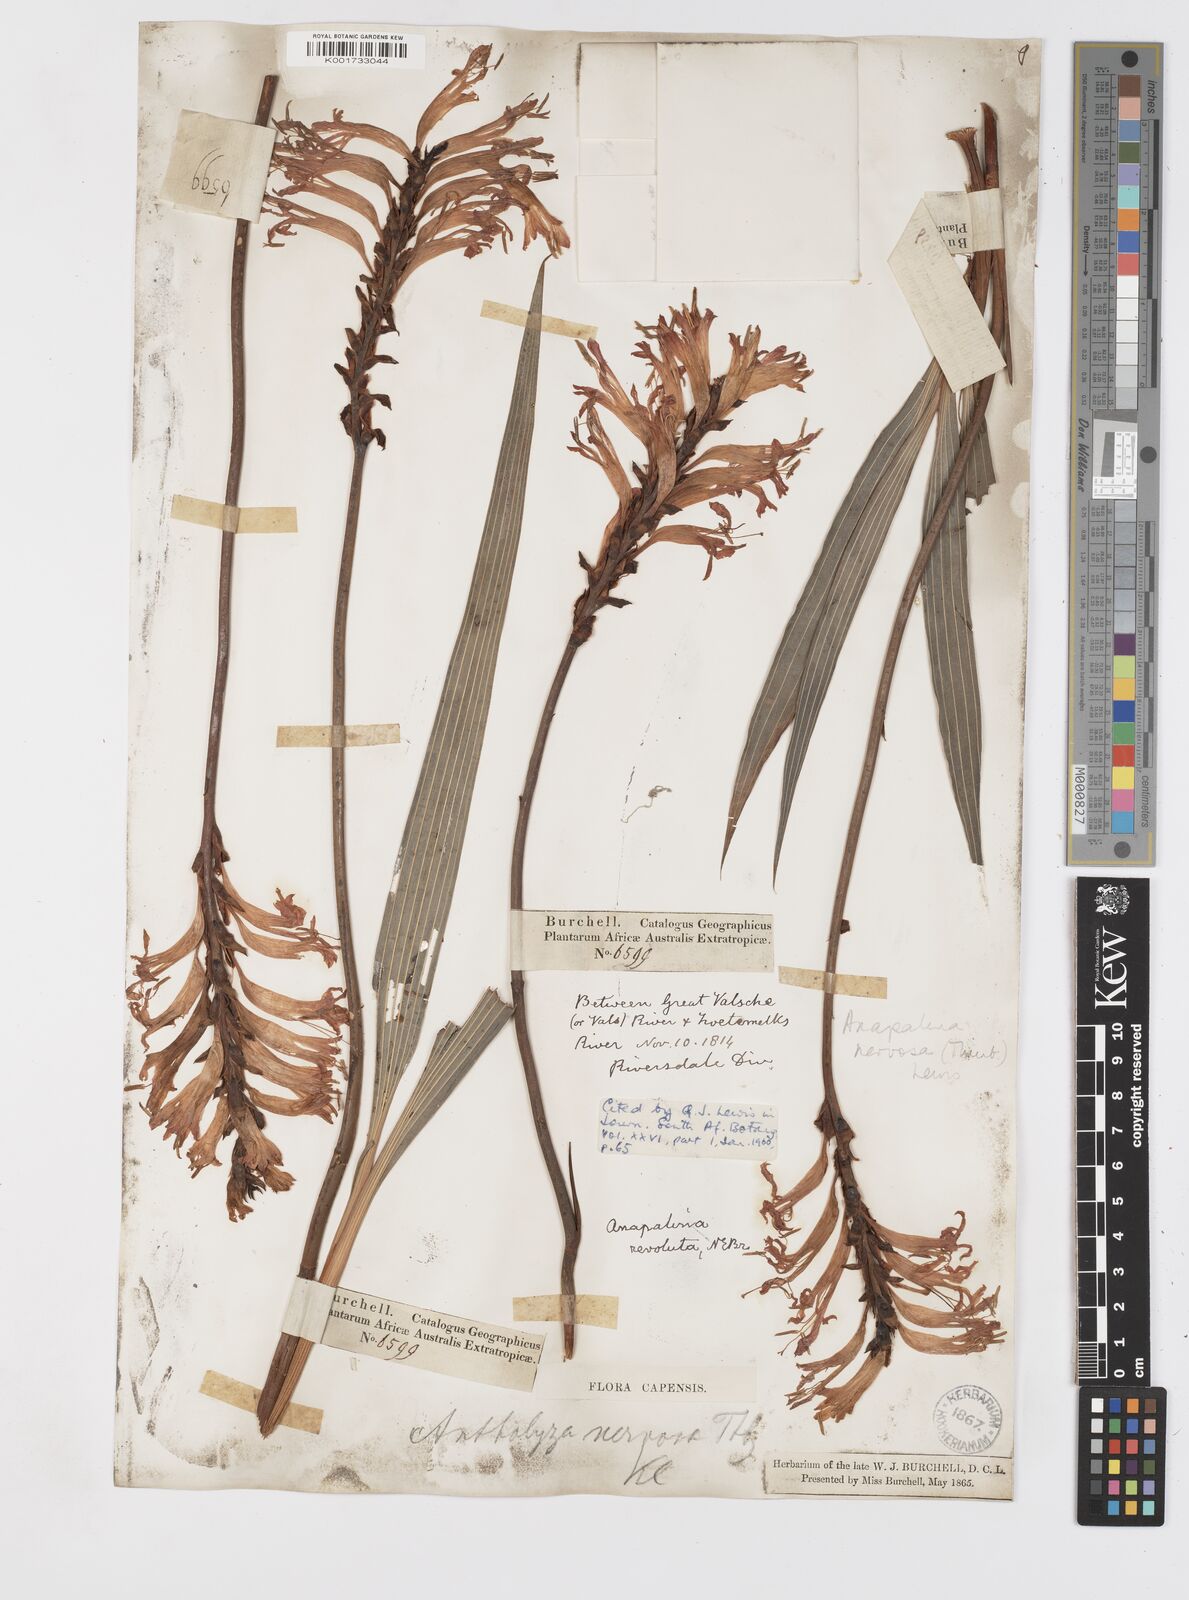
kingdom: Plantae
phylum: Tracheophyta
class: Liliopsida
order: Asparagales
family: Iridaceae
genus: Tritoniopsis
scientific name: Tritoniopsis nervosa
